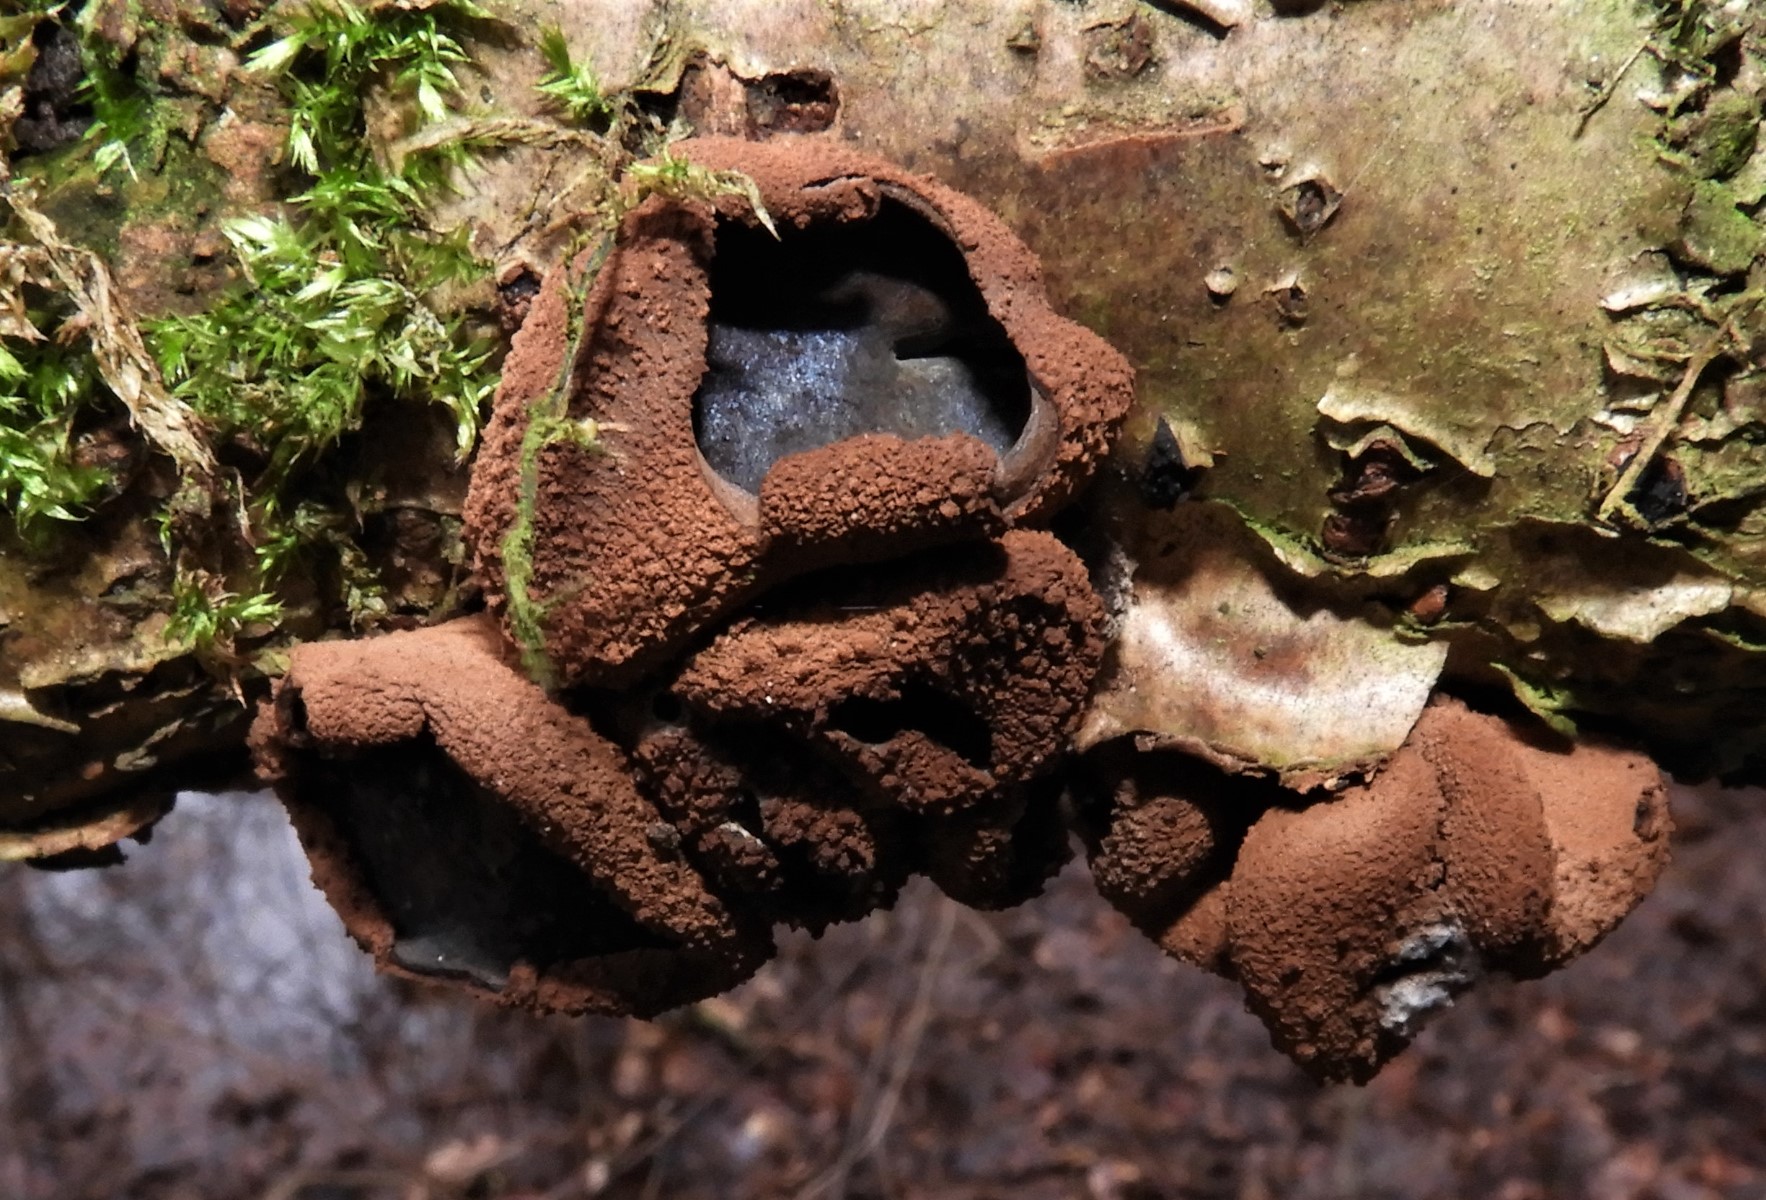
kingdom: Fungi
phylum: Ascomycota
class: Leotiomycetes
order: Helotiales
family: Cenangiaceae
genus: Encoelia
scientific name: Encoelia furfuracea
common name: hassel-læderskive
